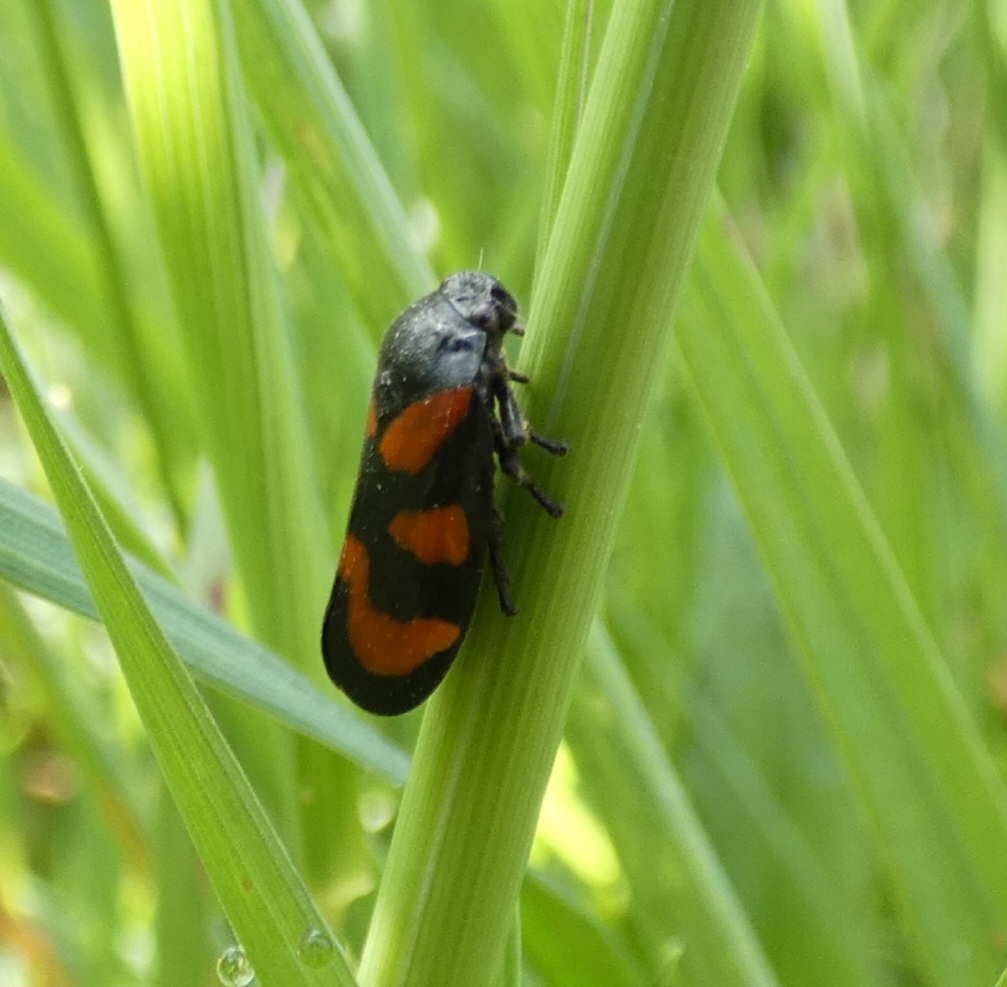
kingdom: Animalia
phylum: Arthropoda
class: Insecta
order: Hemiptera
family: Cercopidae
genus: Cercopis
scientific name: Cercopis vulnerata
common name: Blodcikade
